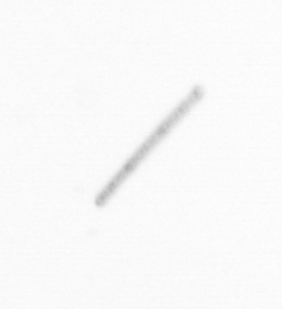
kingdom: Chromista
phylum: Ochrophyta
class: Bacillariophyceae
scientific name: Bacillariophyceae
